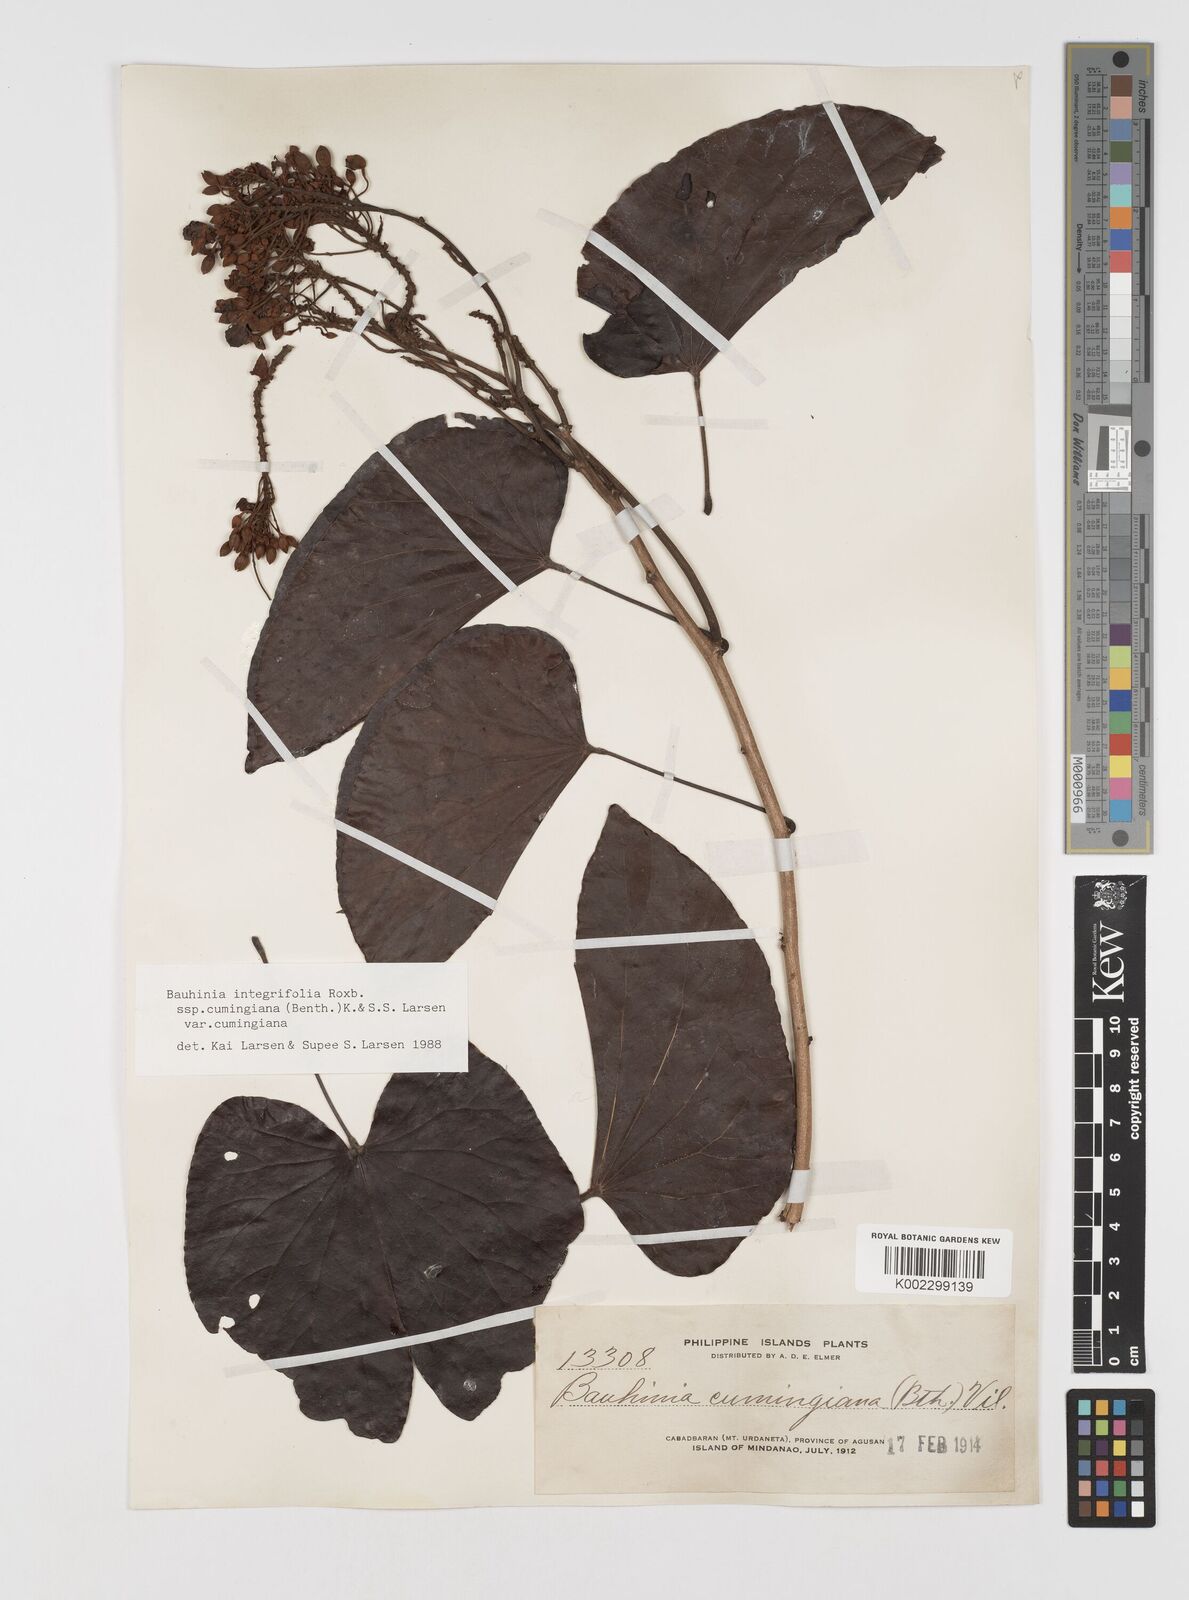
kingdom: Plantae
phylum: Tracheophyta
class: Magnoliopsida
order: Fabales
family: Fabaceae
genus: Phanera
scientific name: Phanera integrifolia
